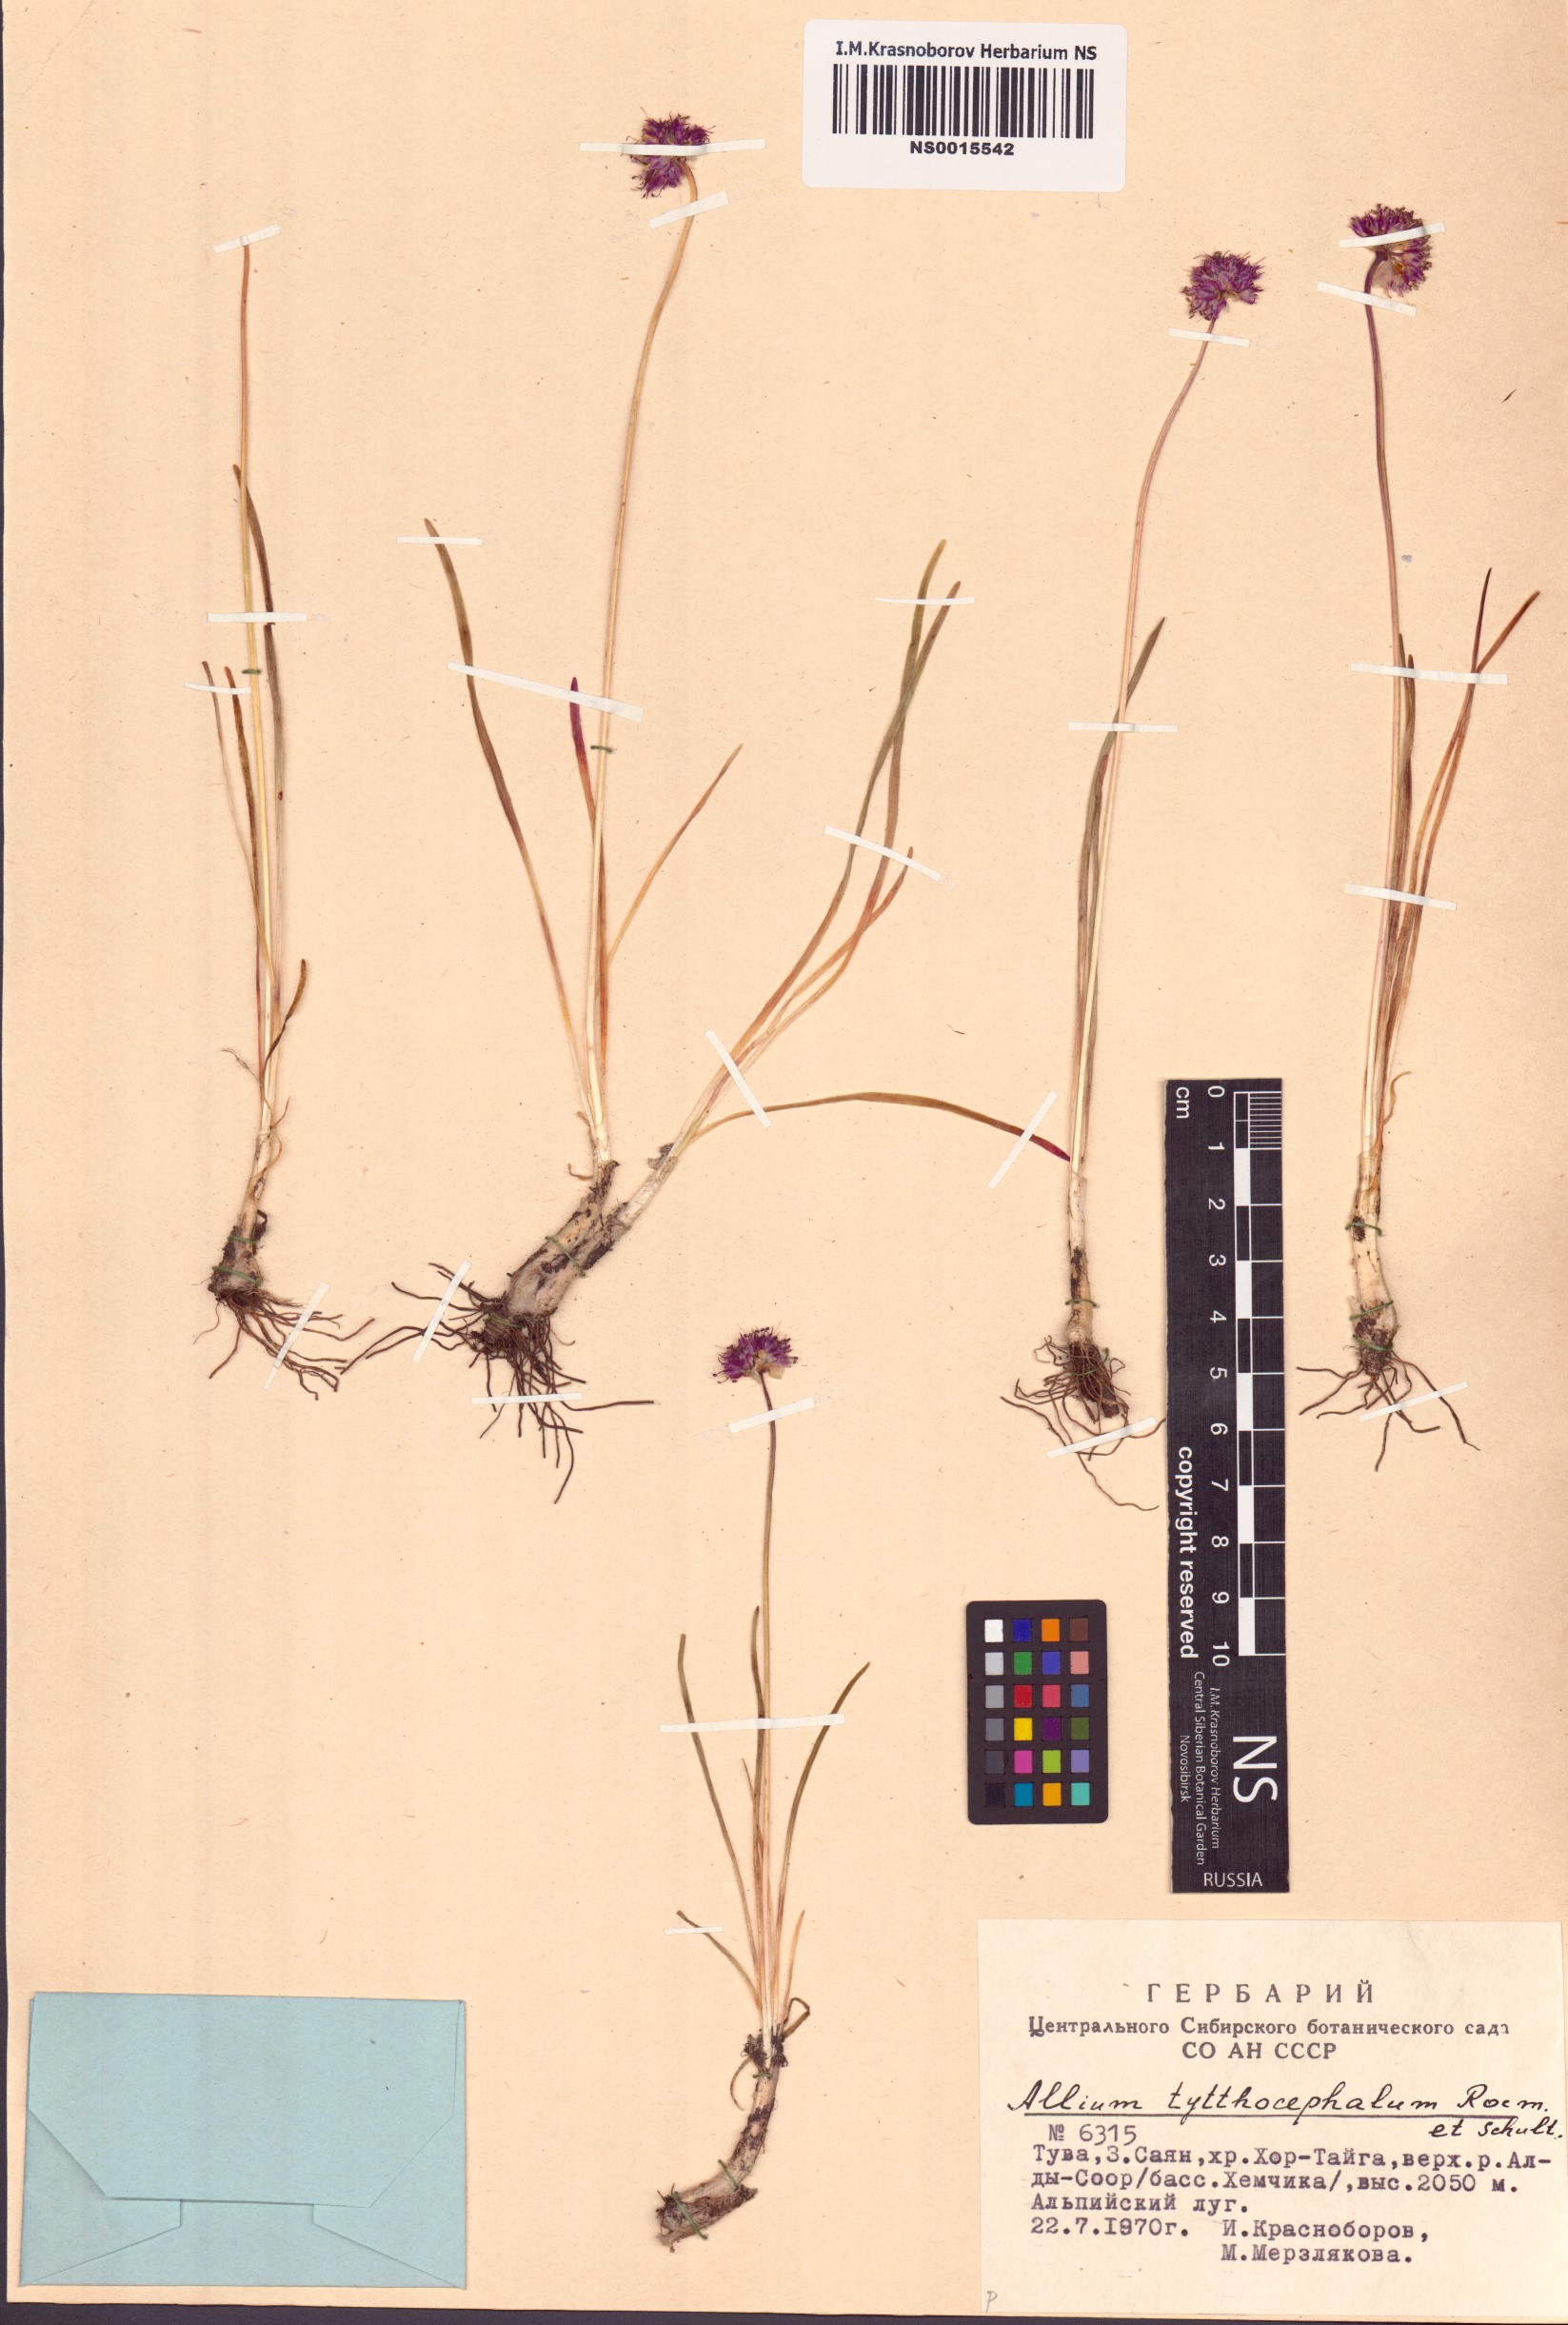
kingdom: Plantae
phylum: Tracheophyta
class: Liliopsida
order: Asparagales
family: Amaryllidaceae
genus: Allium
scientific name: Allium tytthocephalum
